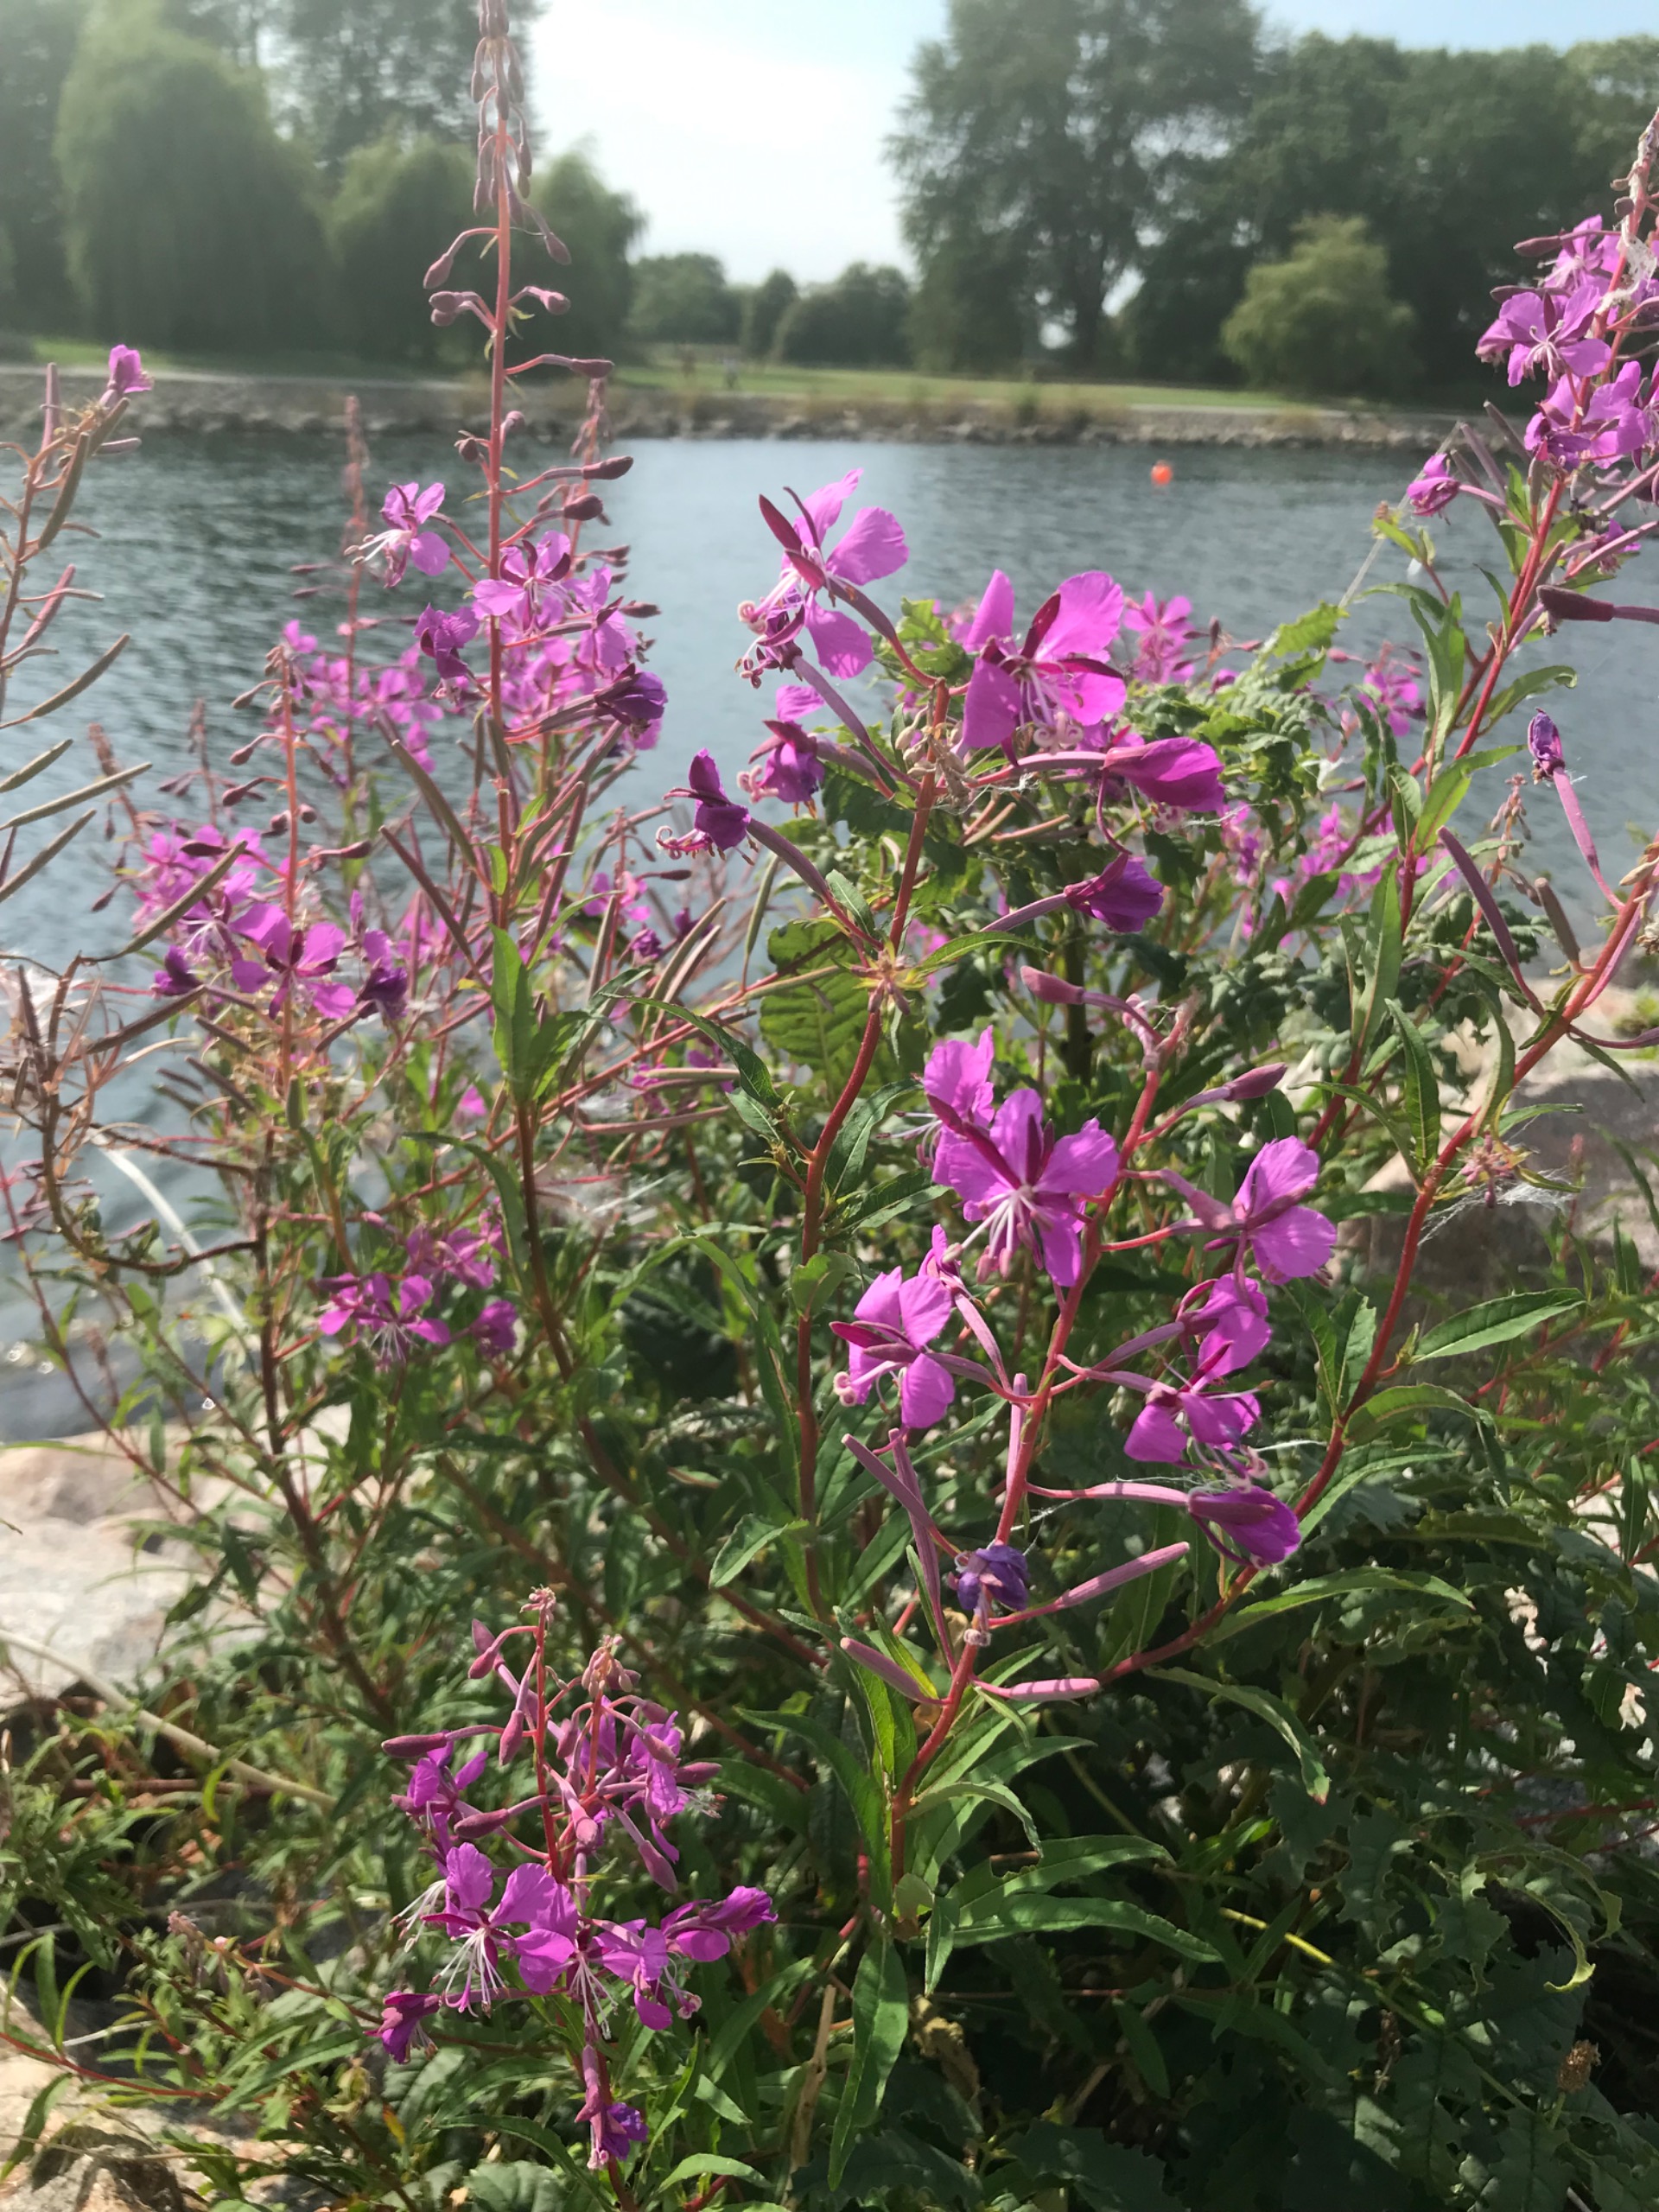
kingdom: Plantae
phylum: Tracheophyta
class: Magnoliopsida
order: Myrtales
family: Onagraceae
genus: Chamaenerion
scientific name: Chamaenerion angustifolium
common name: Gederams
